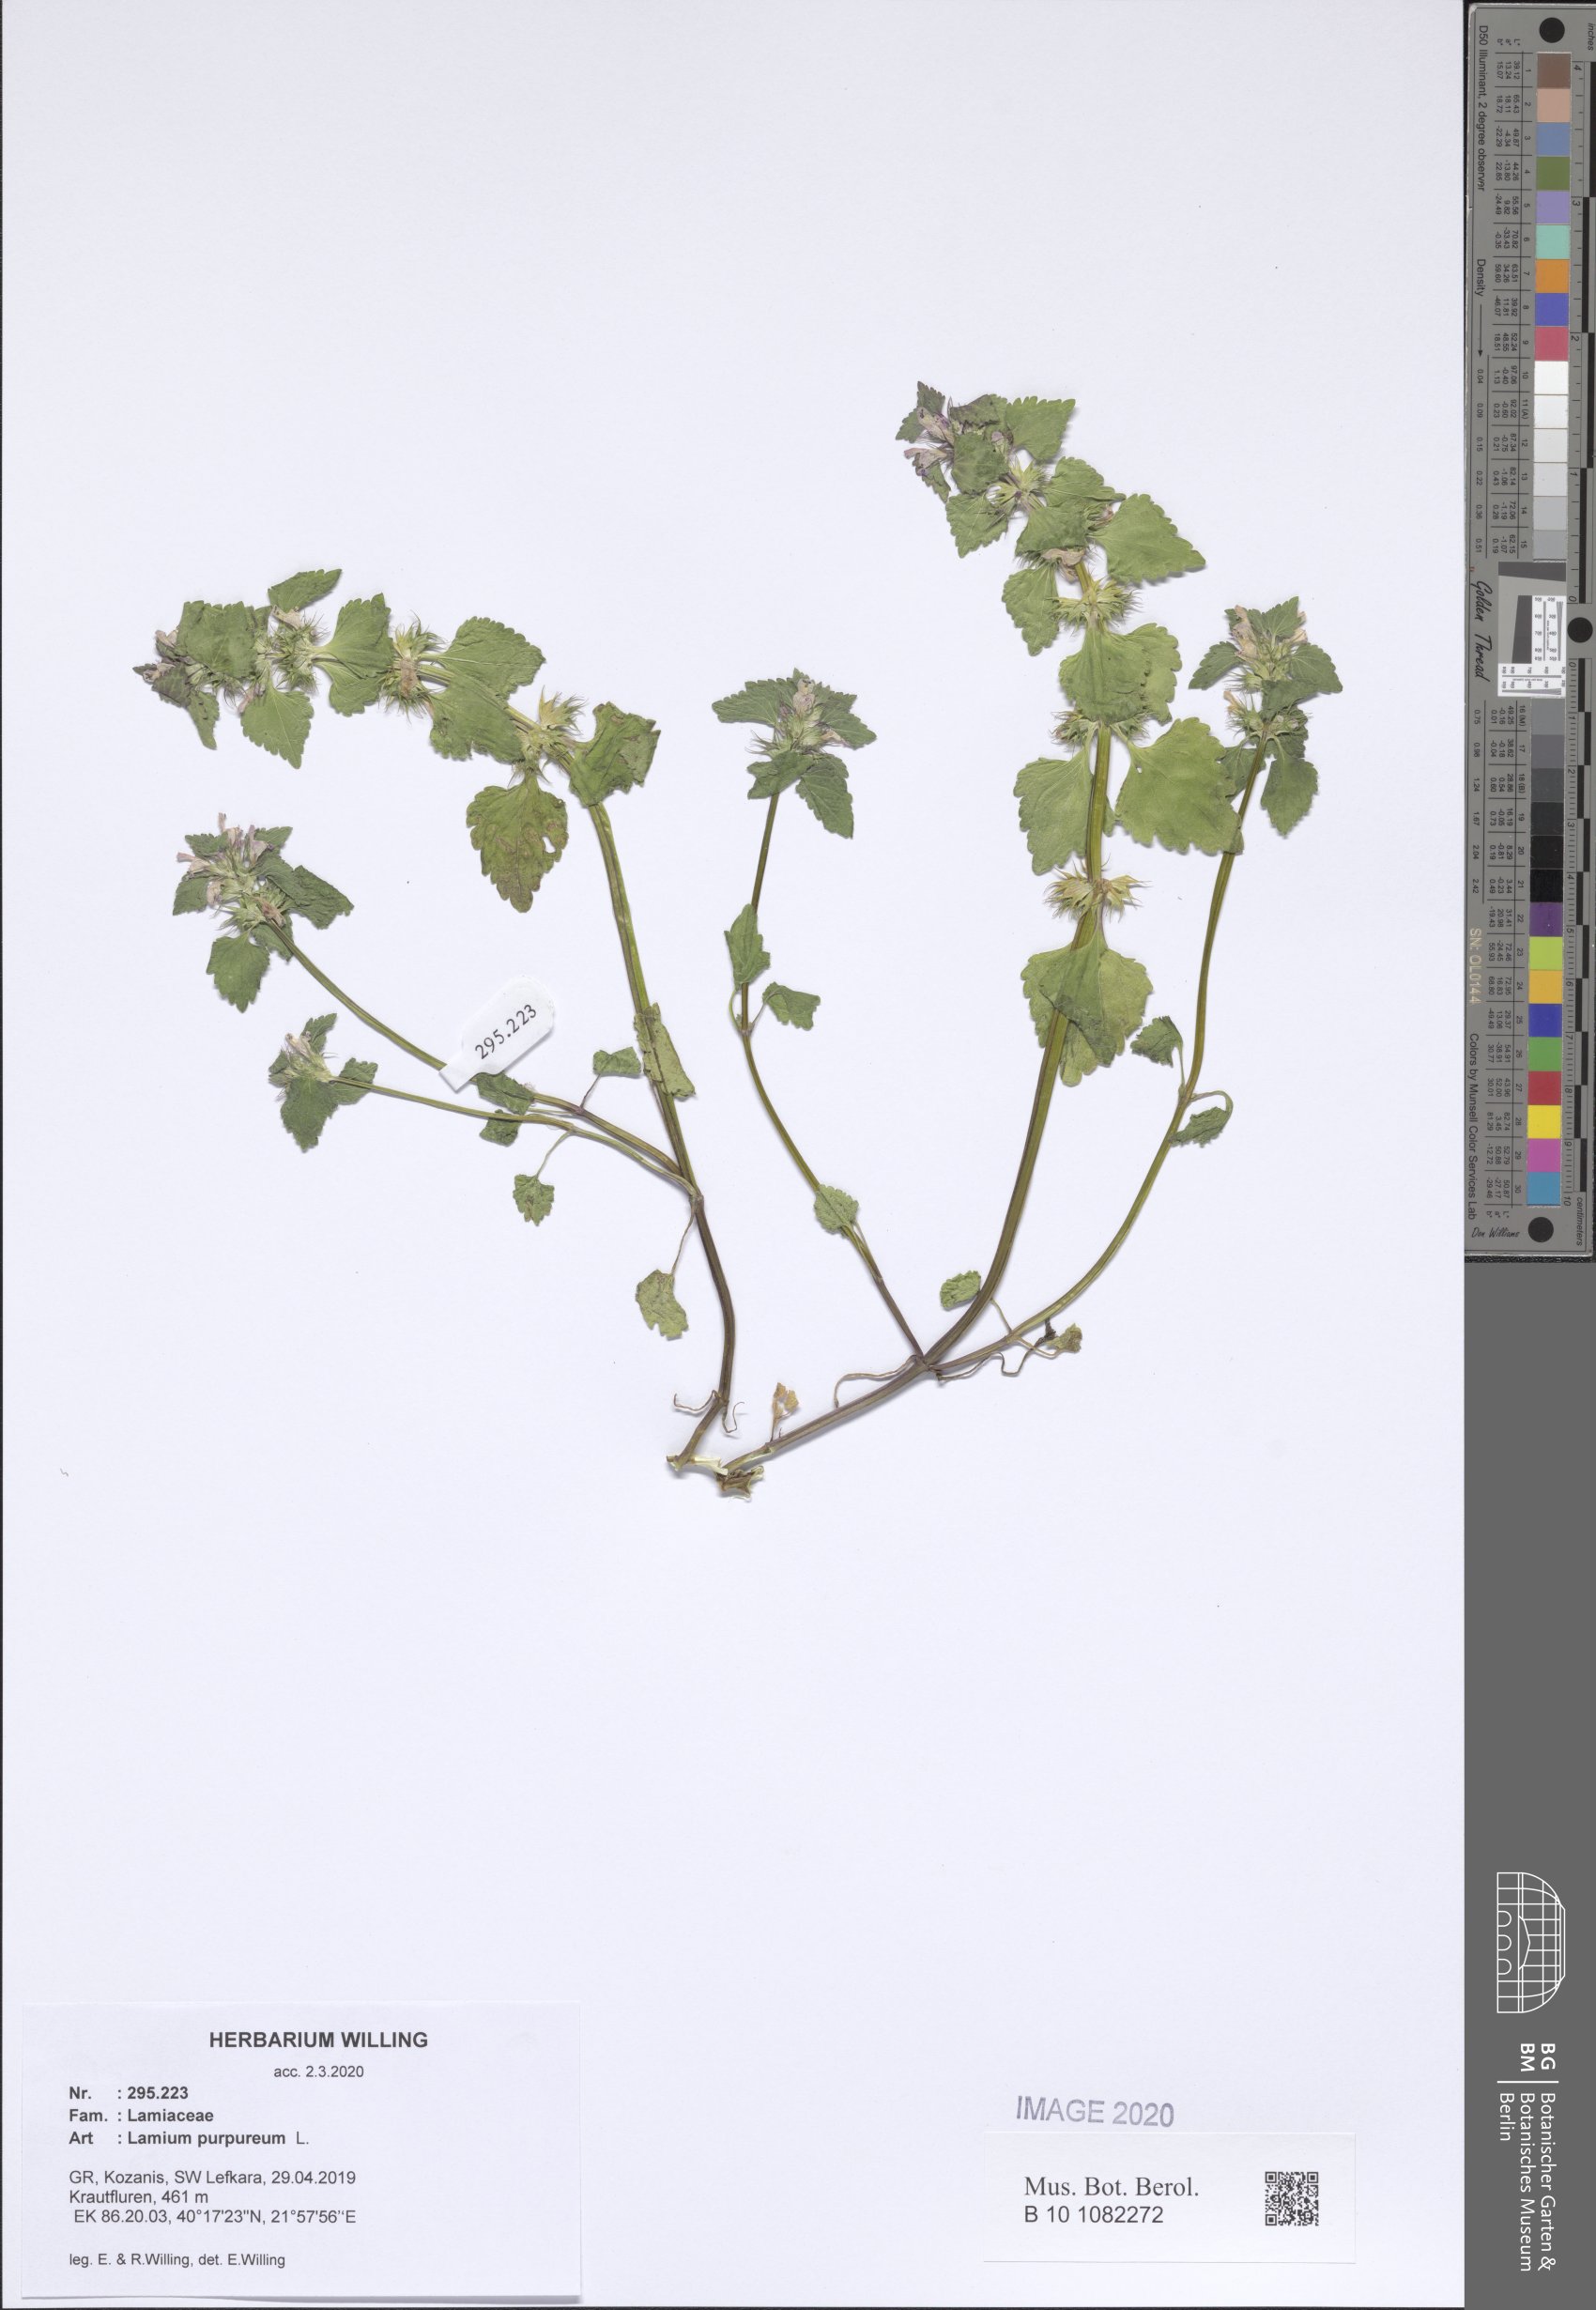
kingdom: Plantae
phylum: Tracheophyta
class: Magnoliopsida
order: Lamiales
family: Lamiaceae
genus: Lamium
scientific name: Lamium purpureum
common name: Red dead-nettle
